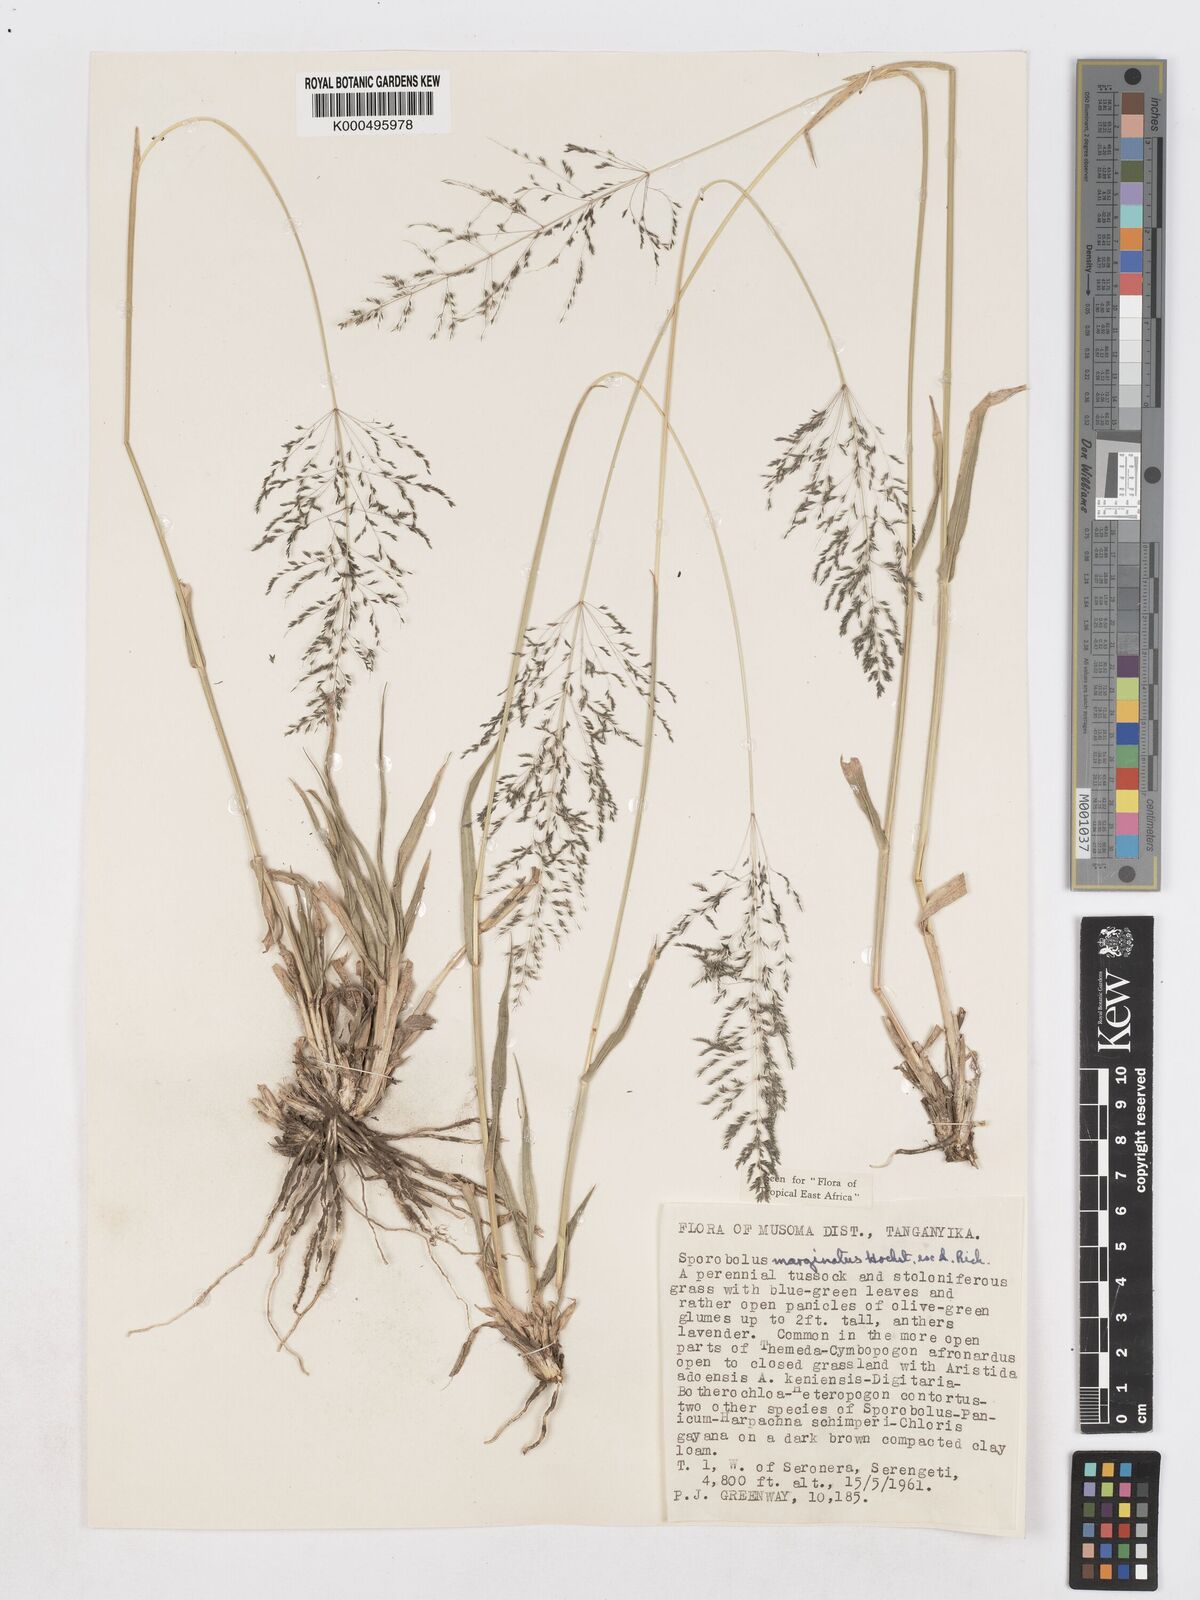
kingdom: Plantae
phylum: Tracheophyta
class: Liliopsida
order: Poales
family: Poaceae
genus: Sporobolus
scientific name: Sporobolus ioclados
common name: Pan dropseed
